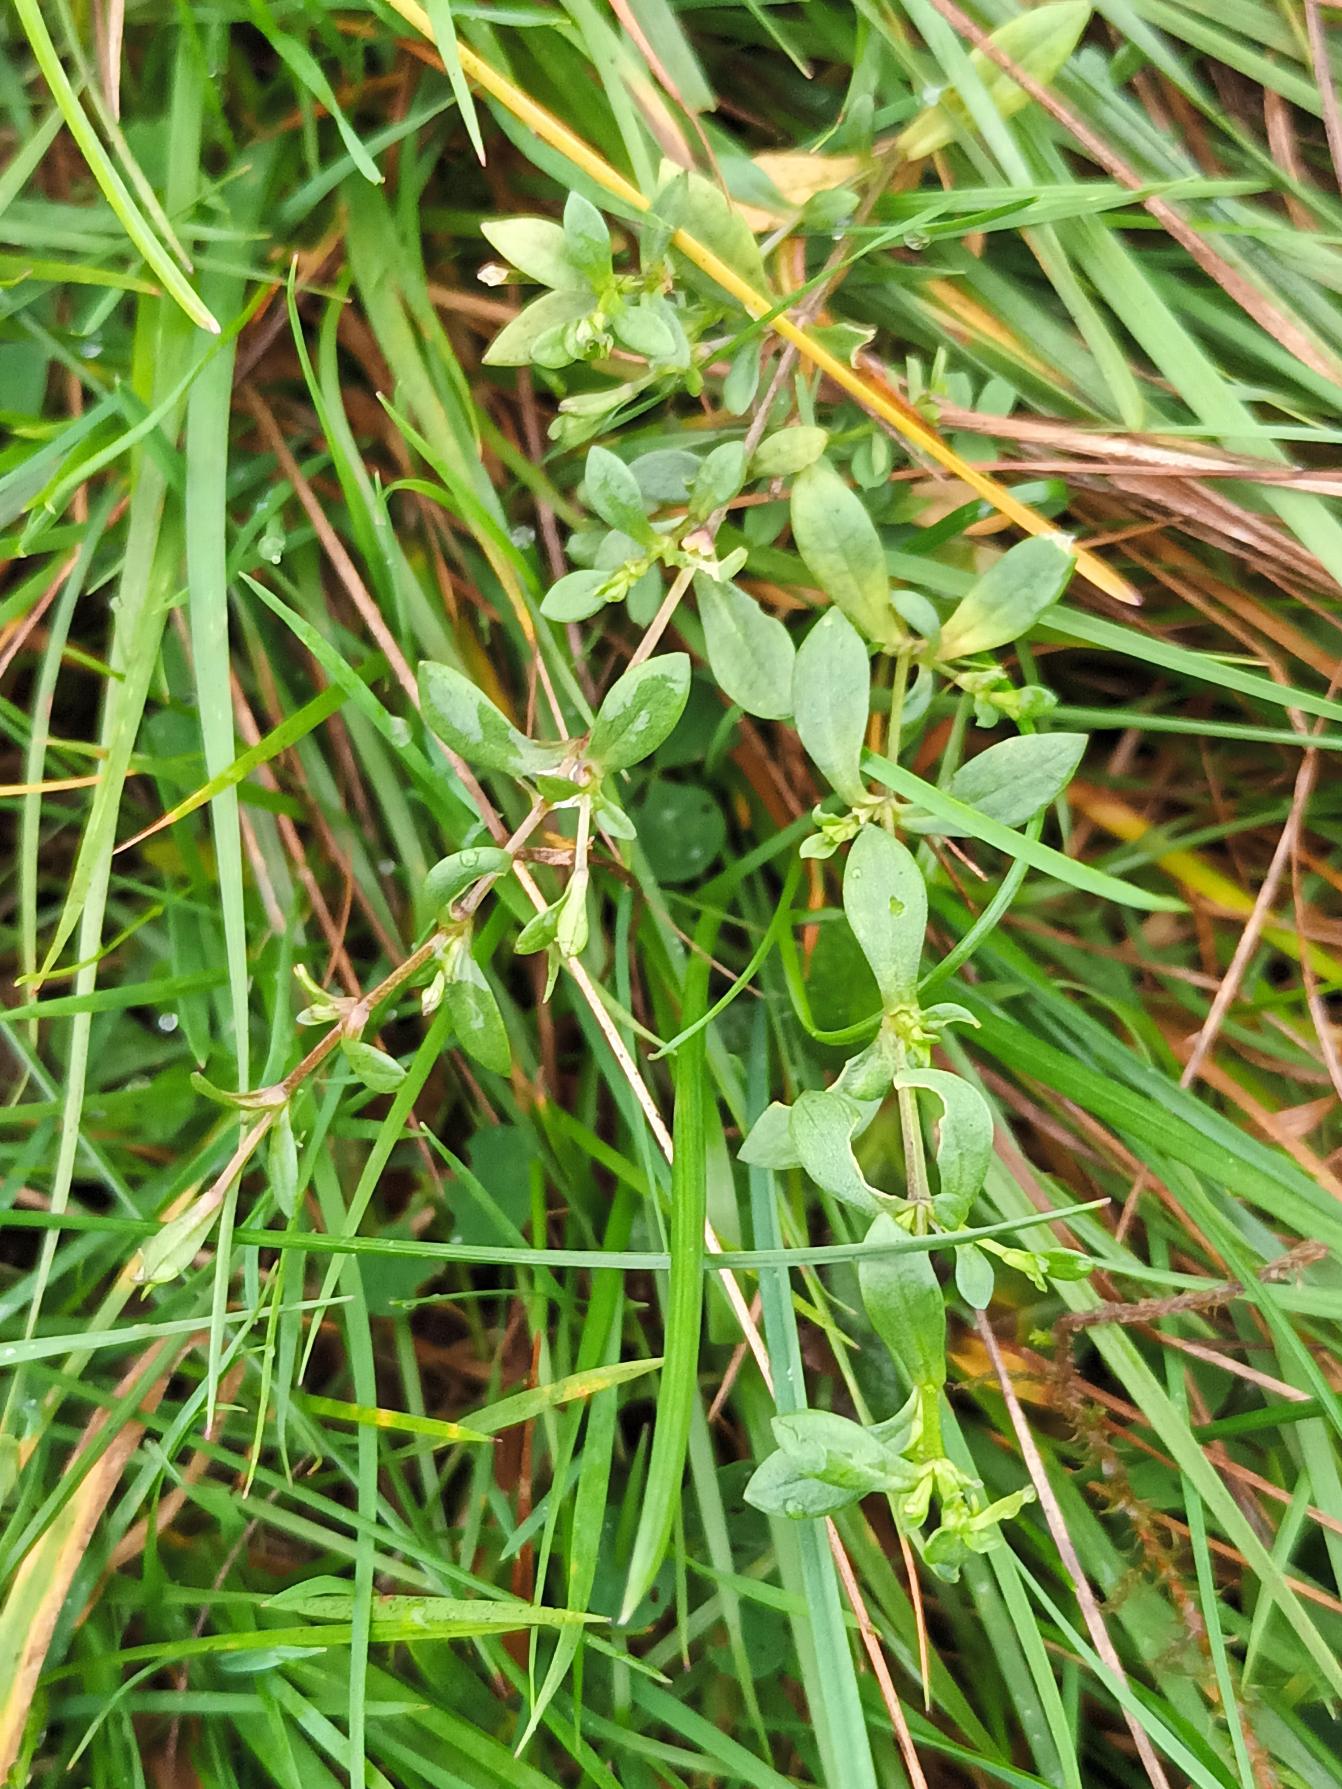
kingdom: Plantae
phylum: Tracheophyta
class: Magnoliopsida
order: Caryophyllales
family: Caryophyllaceae
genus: Stellaria
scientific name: Stellaria alsine
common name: Sump-fladstjerne
